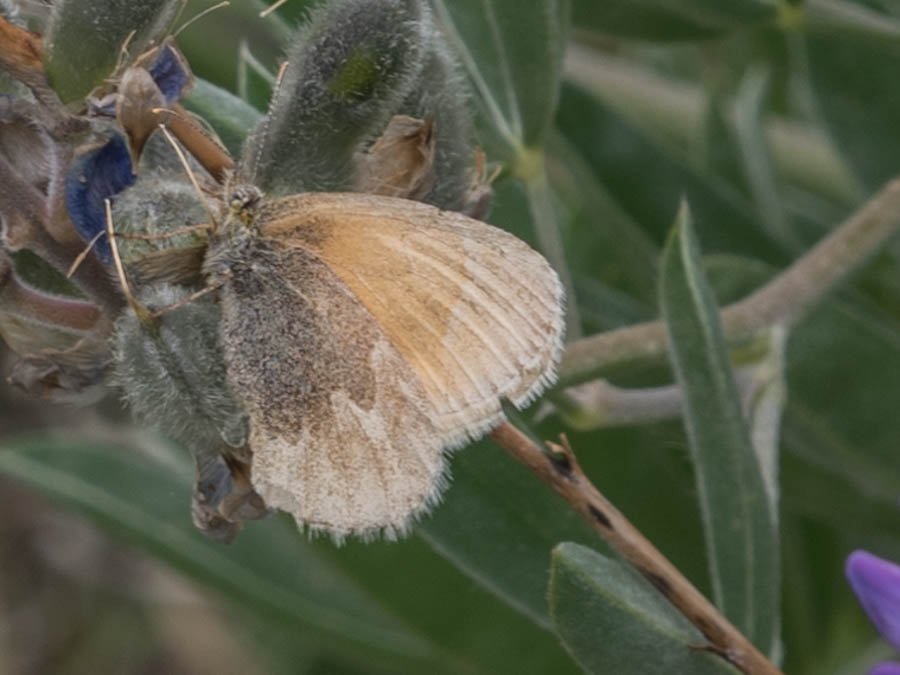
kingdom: Animalia
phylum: Arthropoda
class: Insecta
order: Lepidoptera
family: Nymphalidae
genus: Coenonympha
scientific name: Coenonympha tullia
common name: Large Heath
